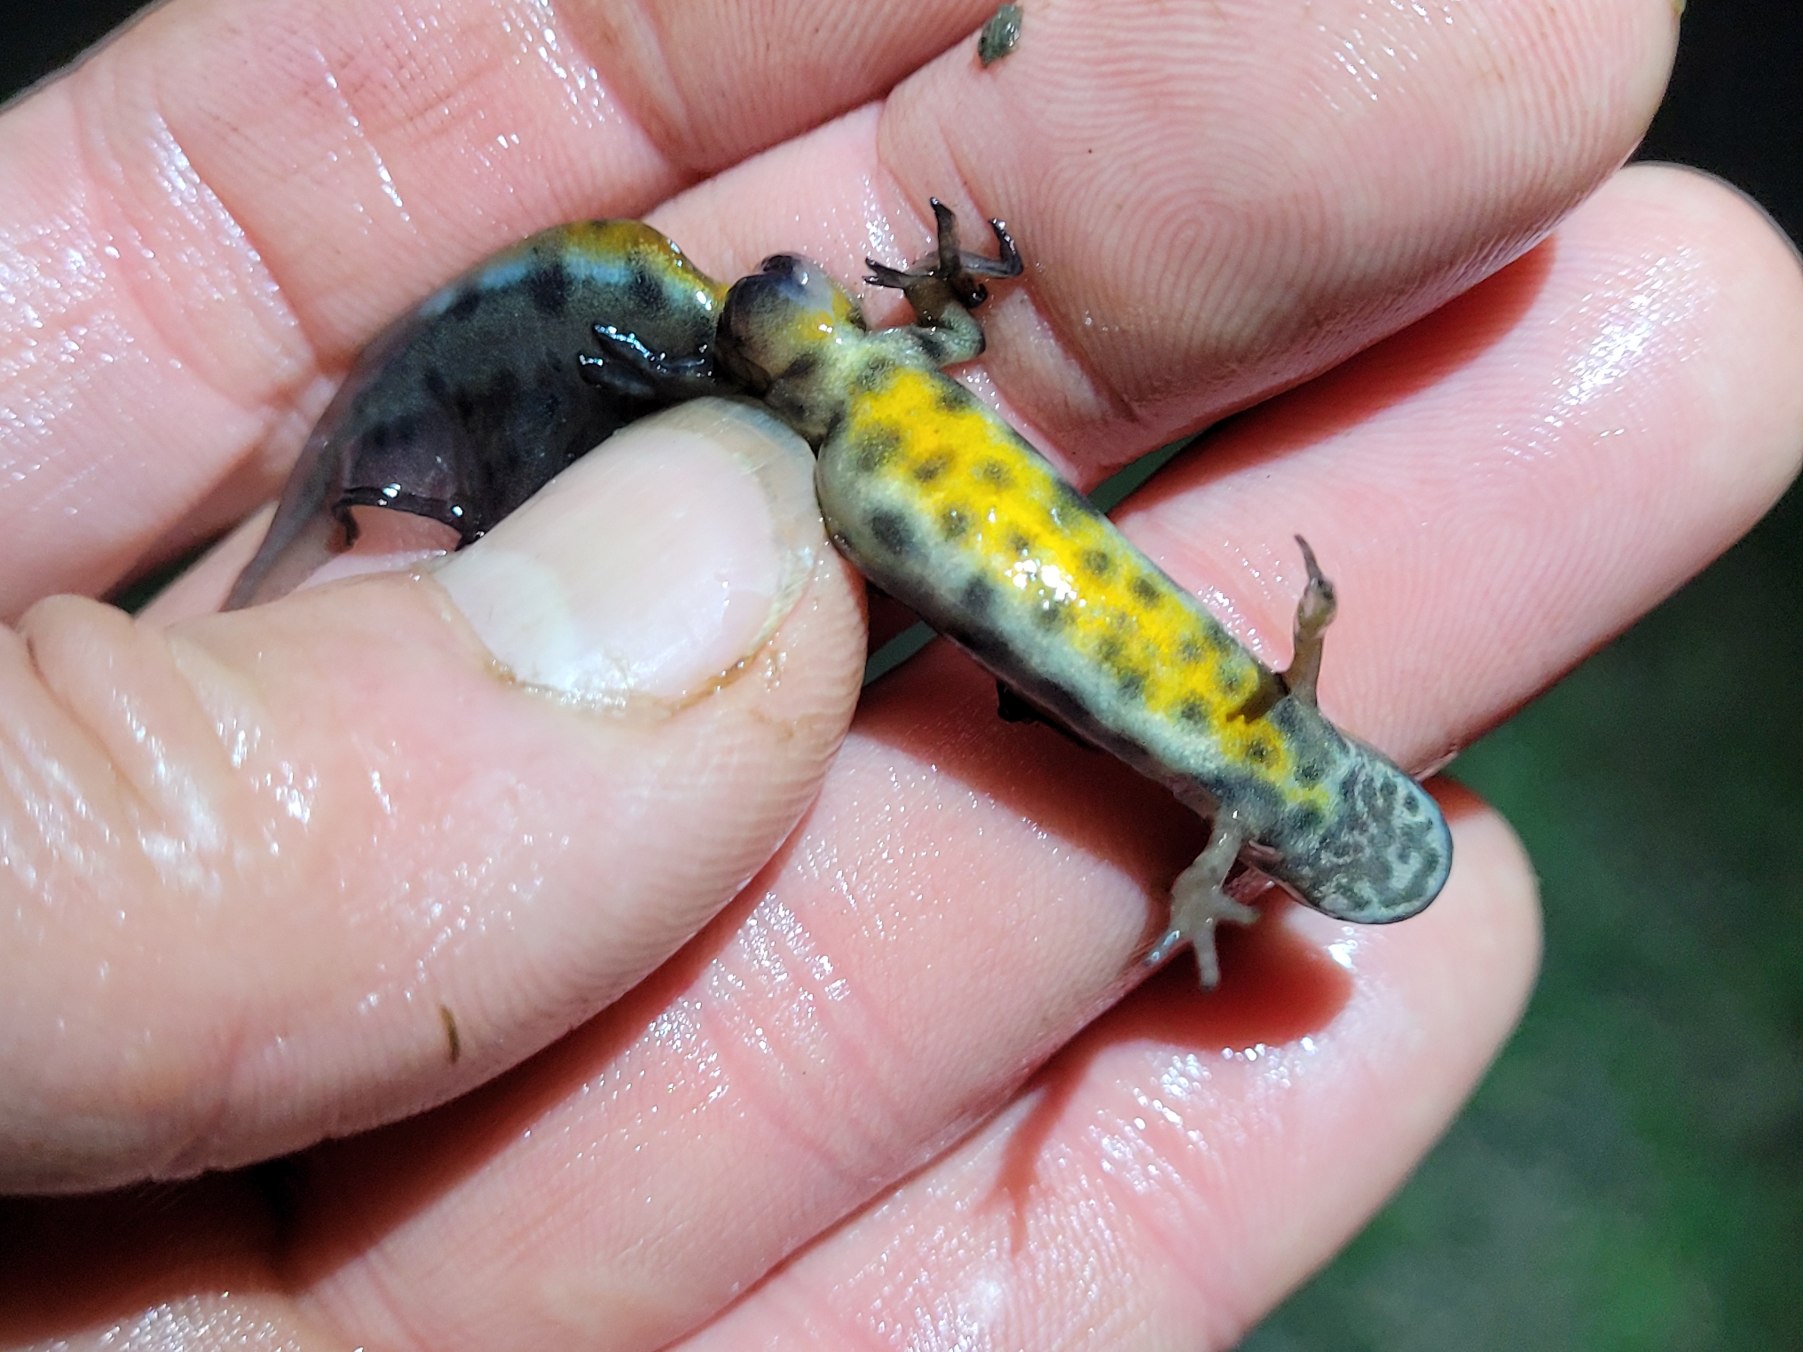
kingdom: Animalia
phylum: Chordata
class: Amphibia
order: Caudata
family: Salamandridae
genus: Lissotriton
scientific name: Lissotriton vulgaris
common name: Lille vandsalamander
